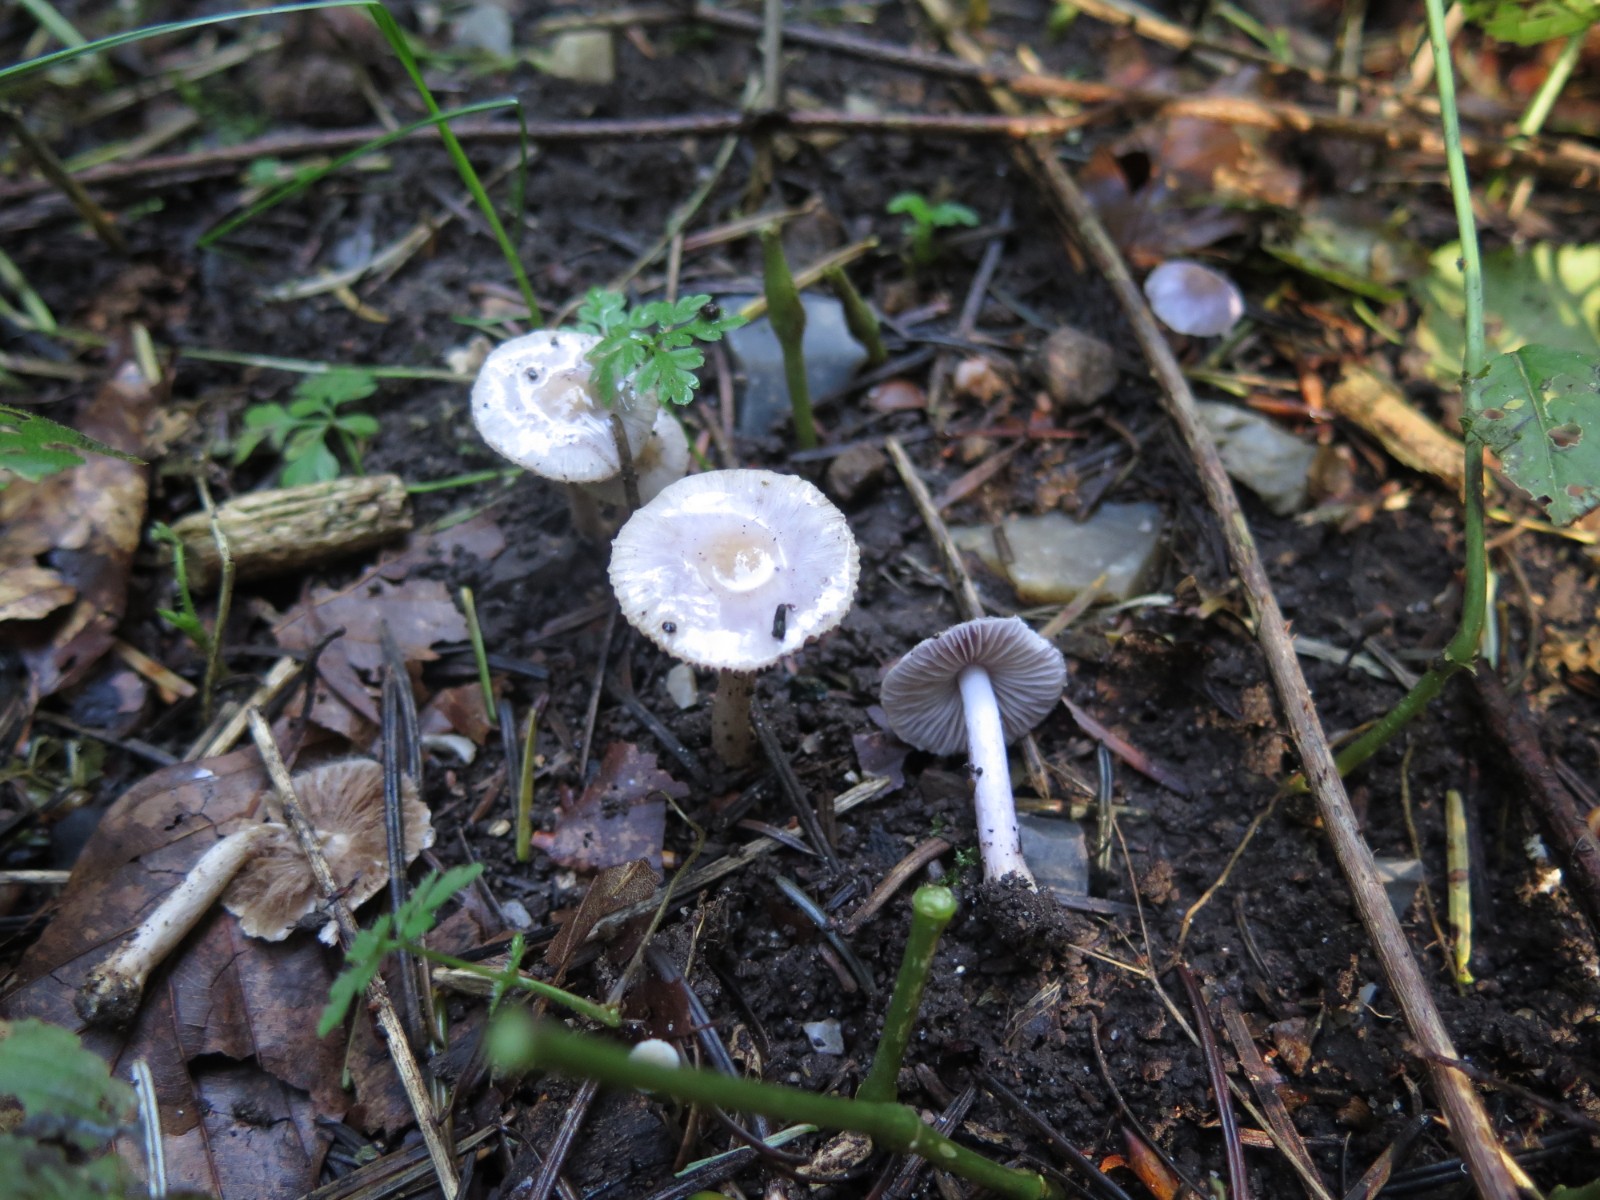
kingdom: Fungi
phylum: Basidiomycota
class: Agaricomycetes
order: Agaricales
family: Inocybaceae
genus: Inocybe
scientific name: Inocybe geophylla
